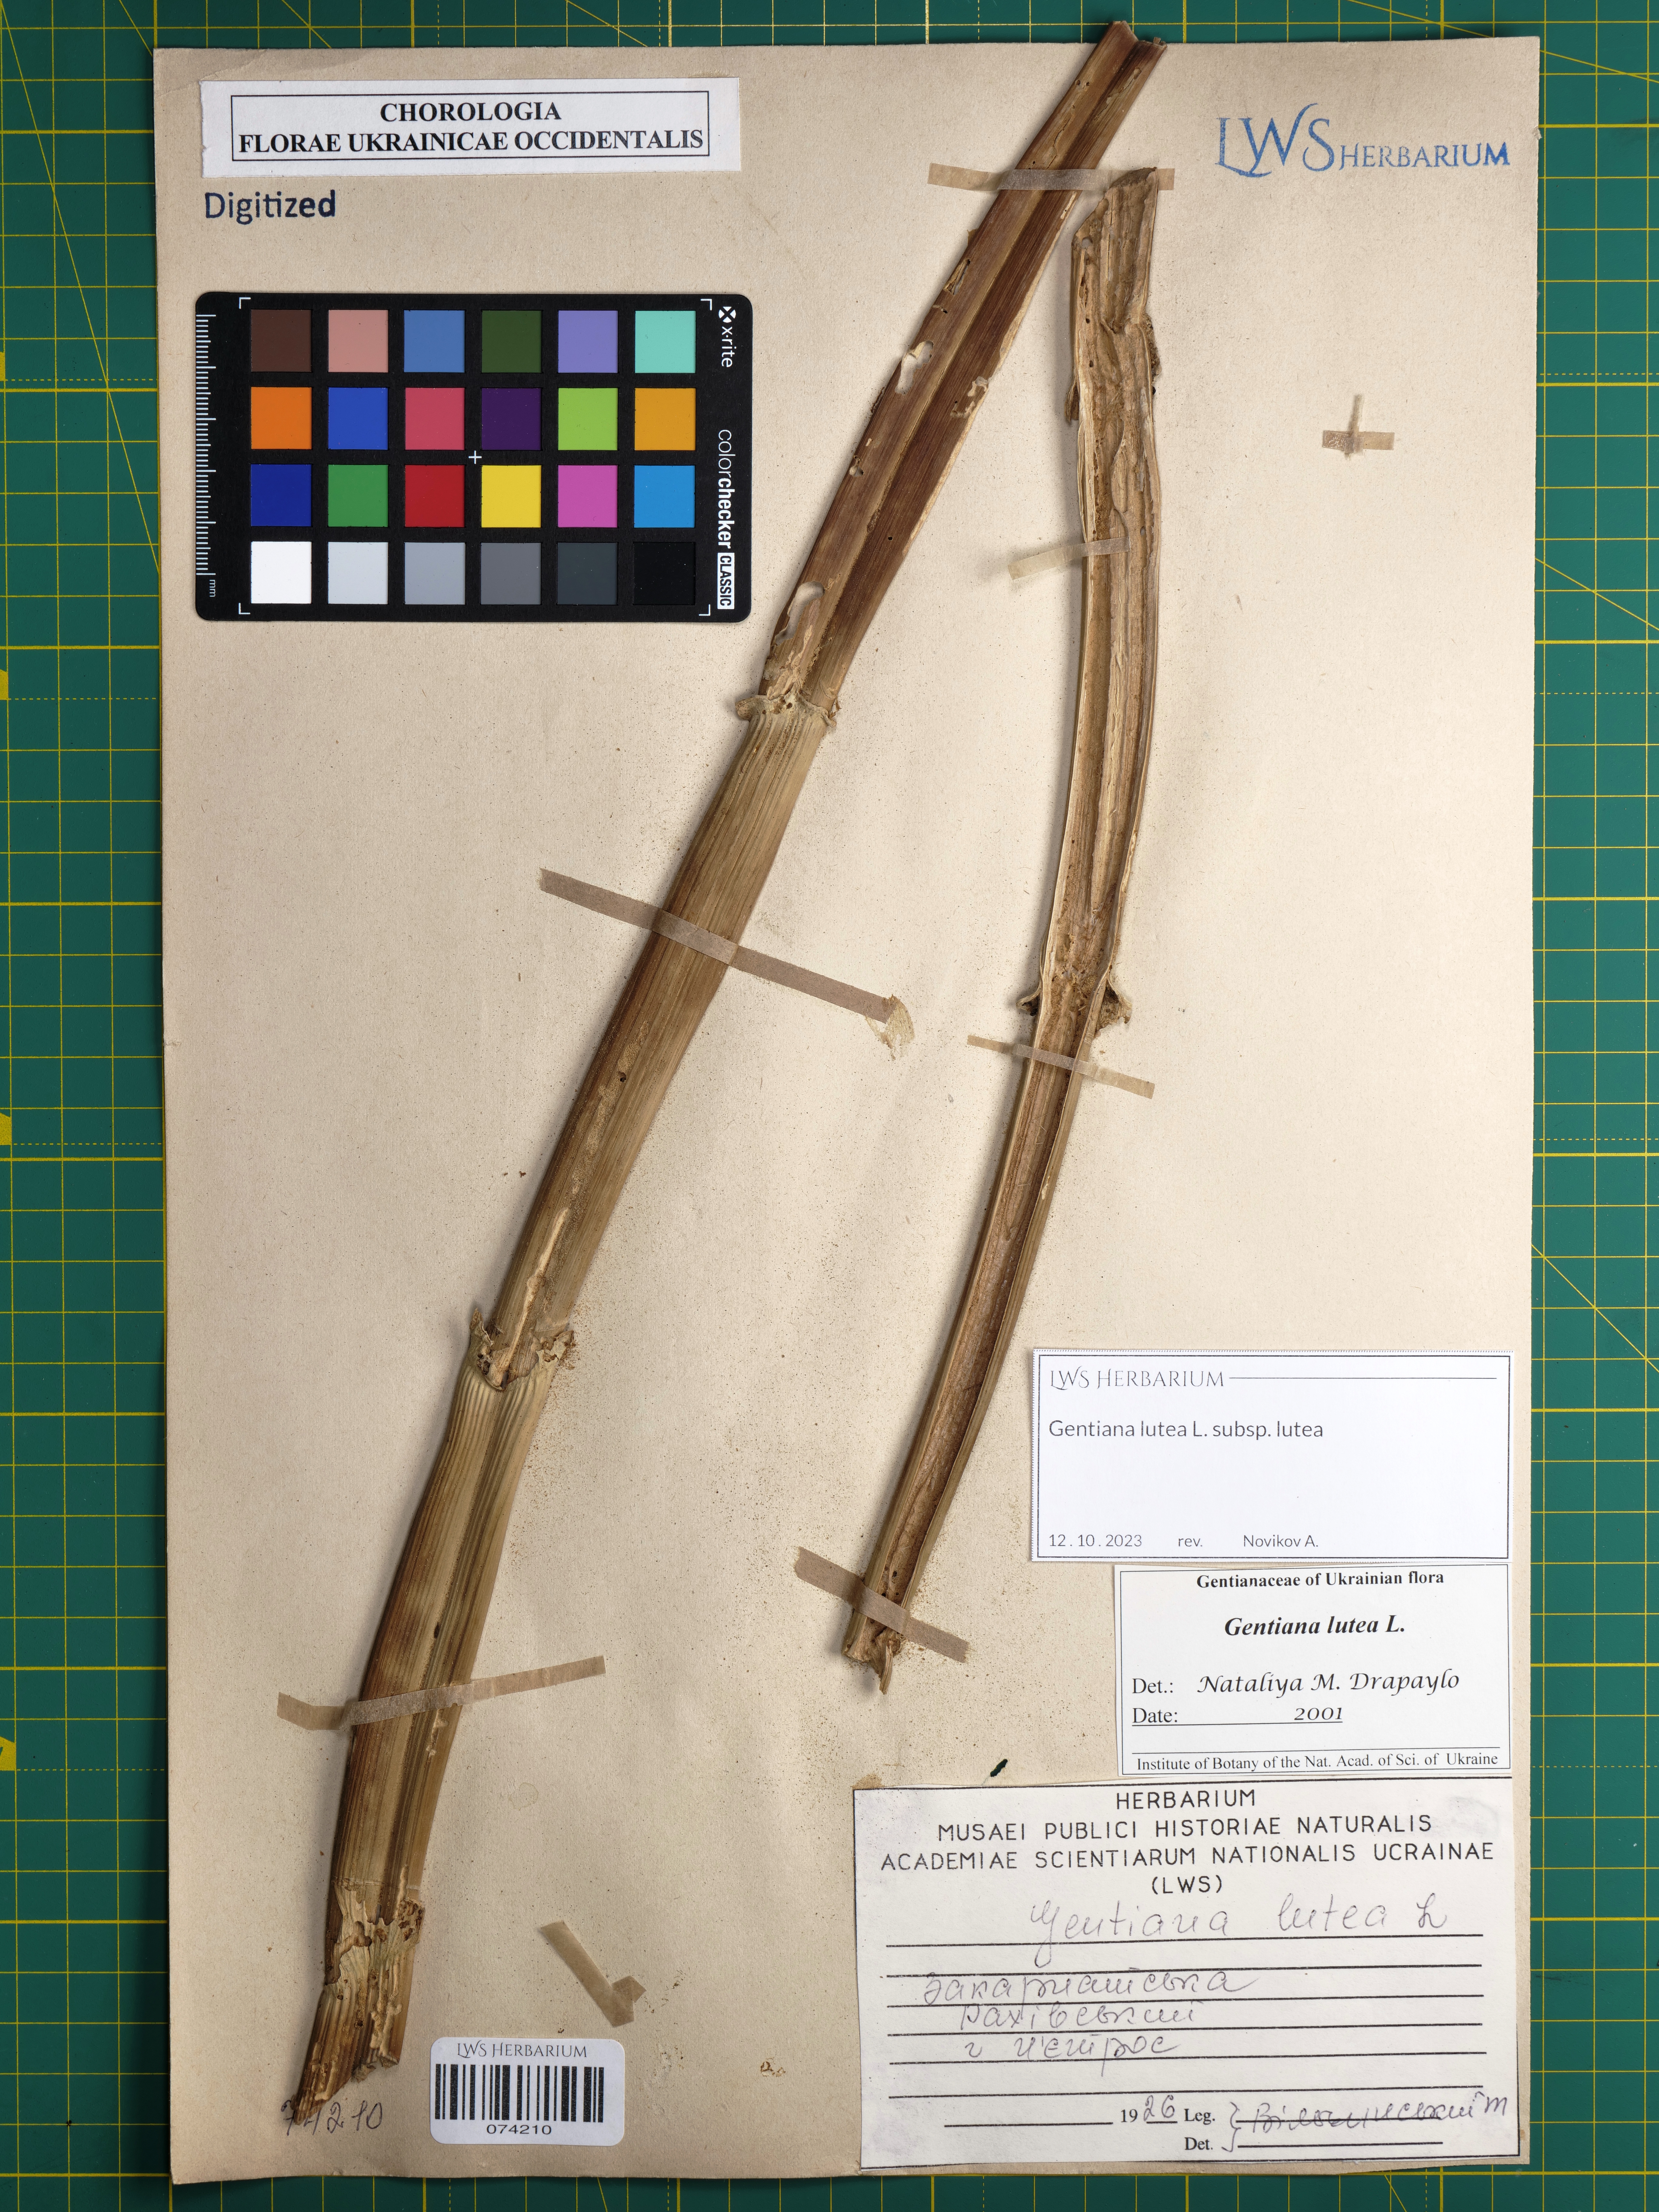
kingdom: Plantae
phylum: Tracheophyta
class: Magnoliopsida
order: Gentianales
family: Gentianaceae
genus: Gentiana
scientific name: Gentiana lutea
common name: Great yellow gentian
